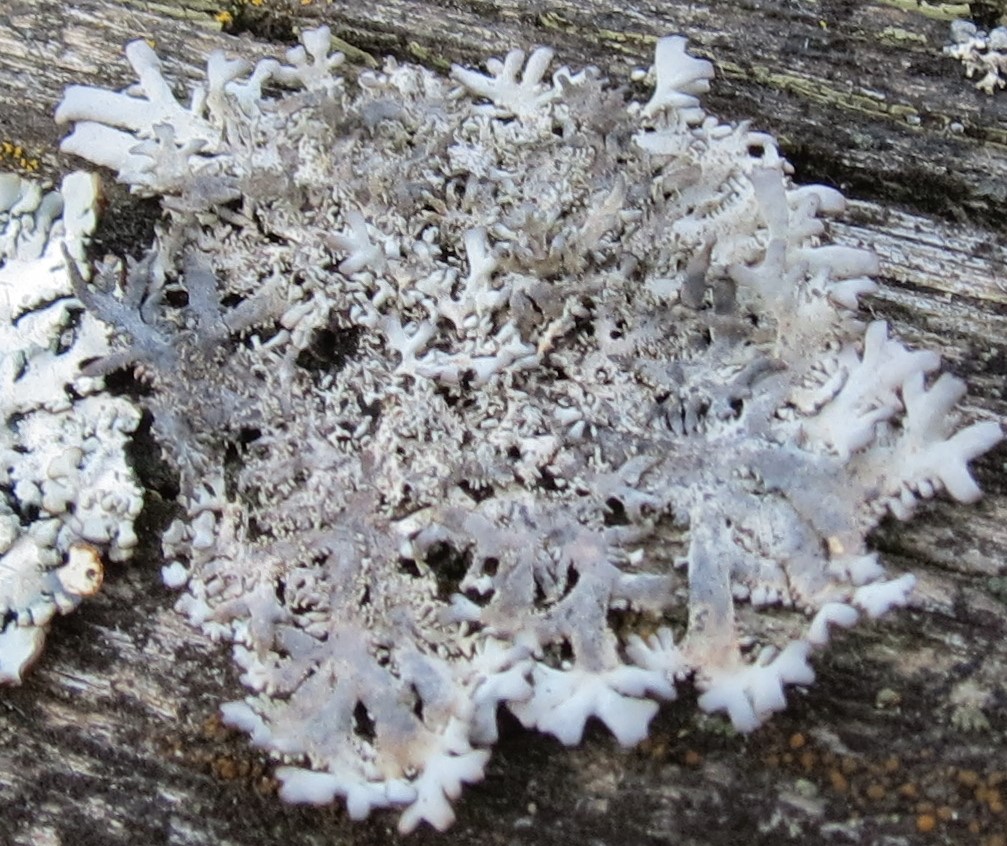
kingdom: Fungi
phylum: Ascomycota
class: Lecanoromycetes
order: Lecanorales
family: Parmeliaceae
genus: Pseudevernia
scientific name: Pseudevernia furfuracea
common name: grå fyrrelav
